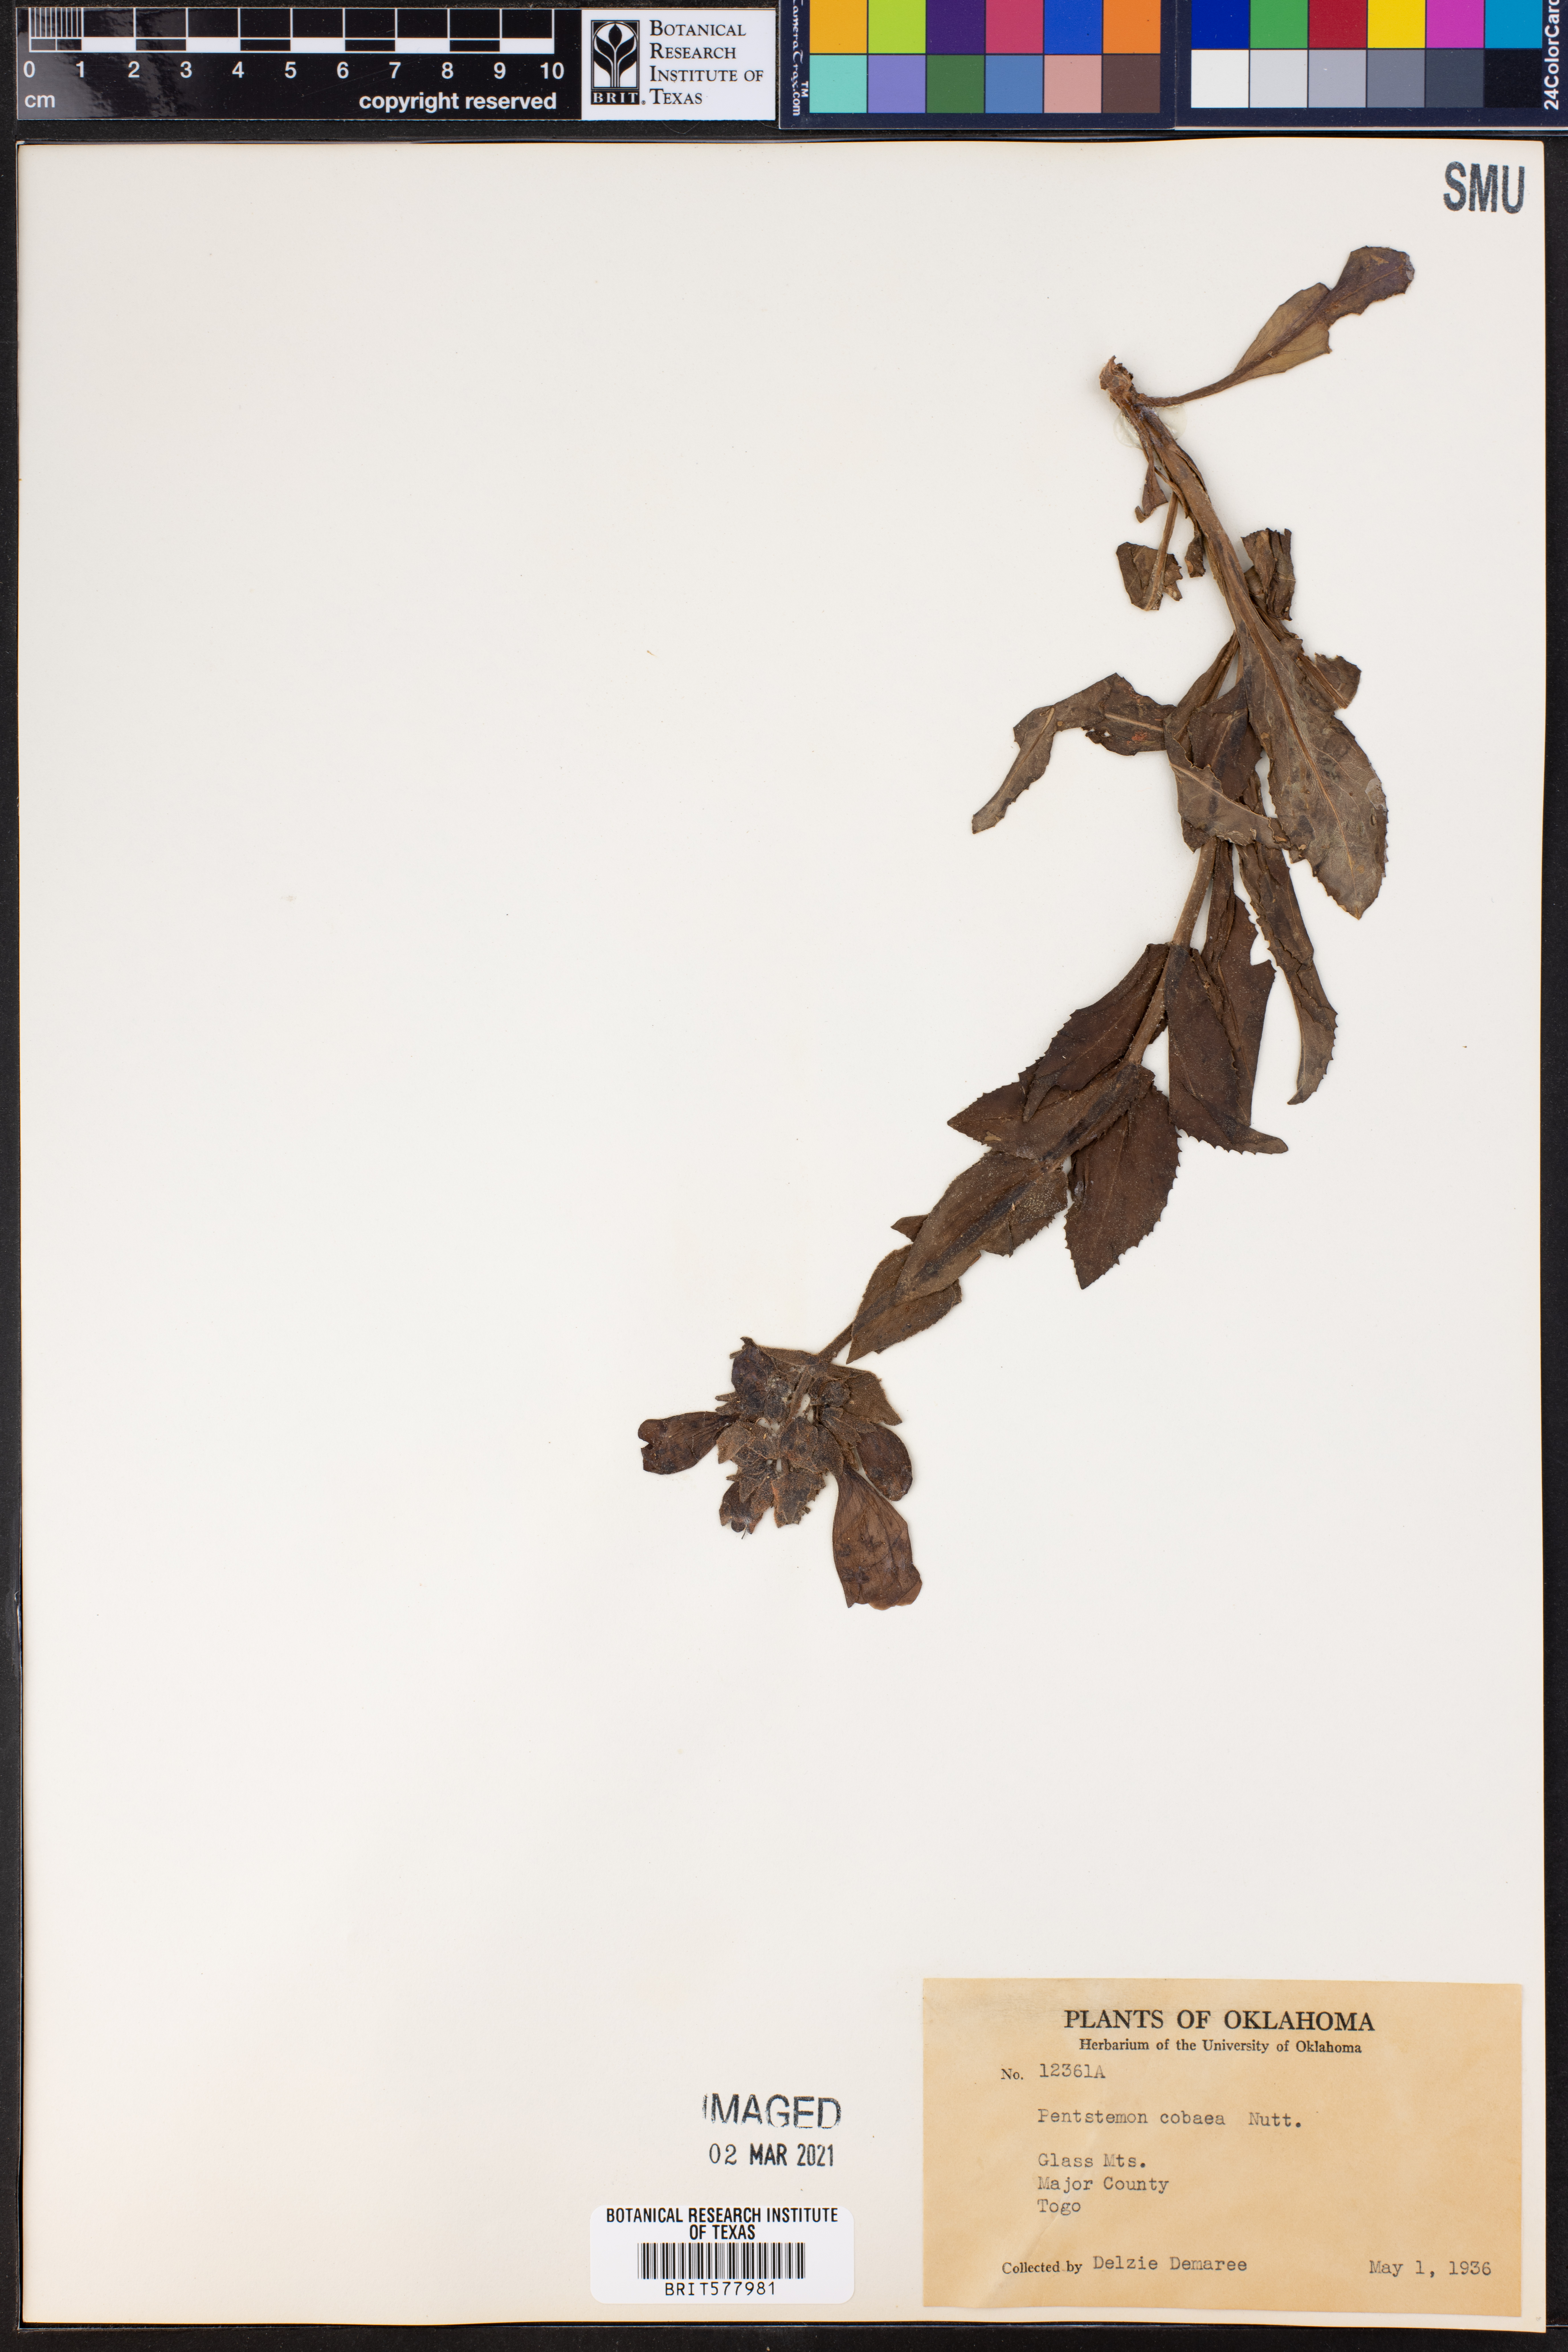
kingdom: Plantae
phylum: Tracheophyta
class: Magnoliopsida
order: Lamiales
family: Plantaginaceae
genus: Penstemon
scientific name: Penstemon cobaea
